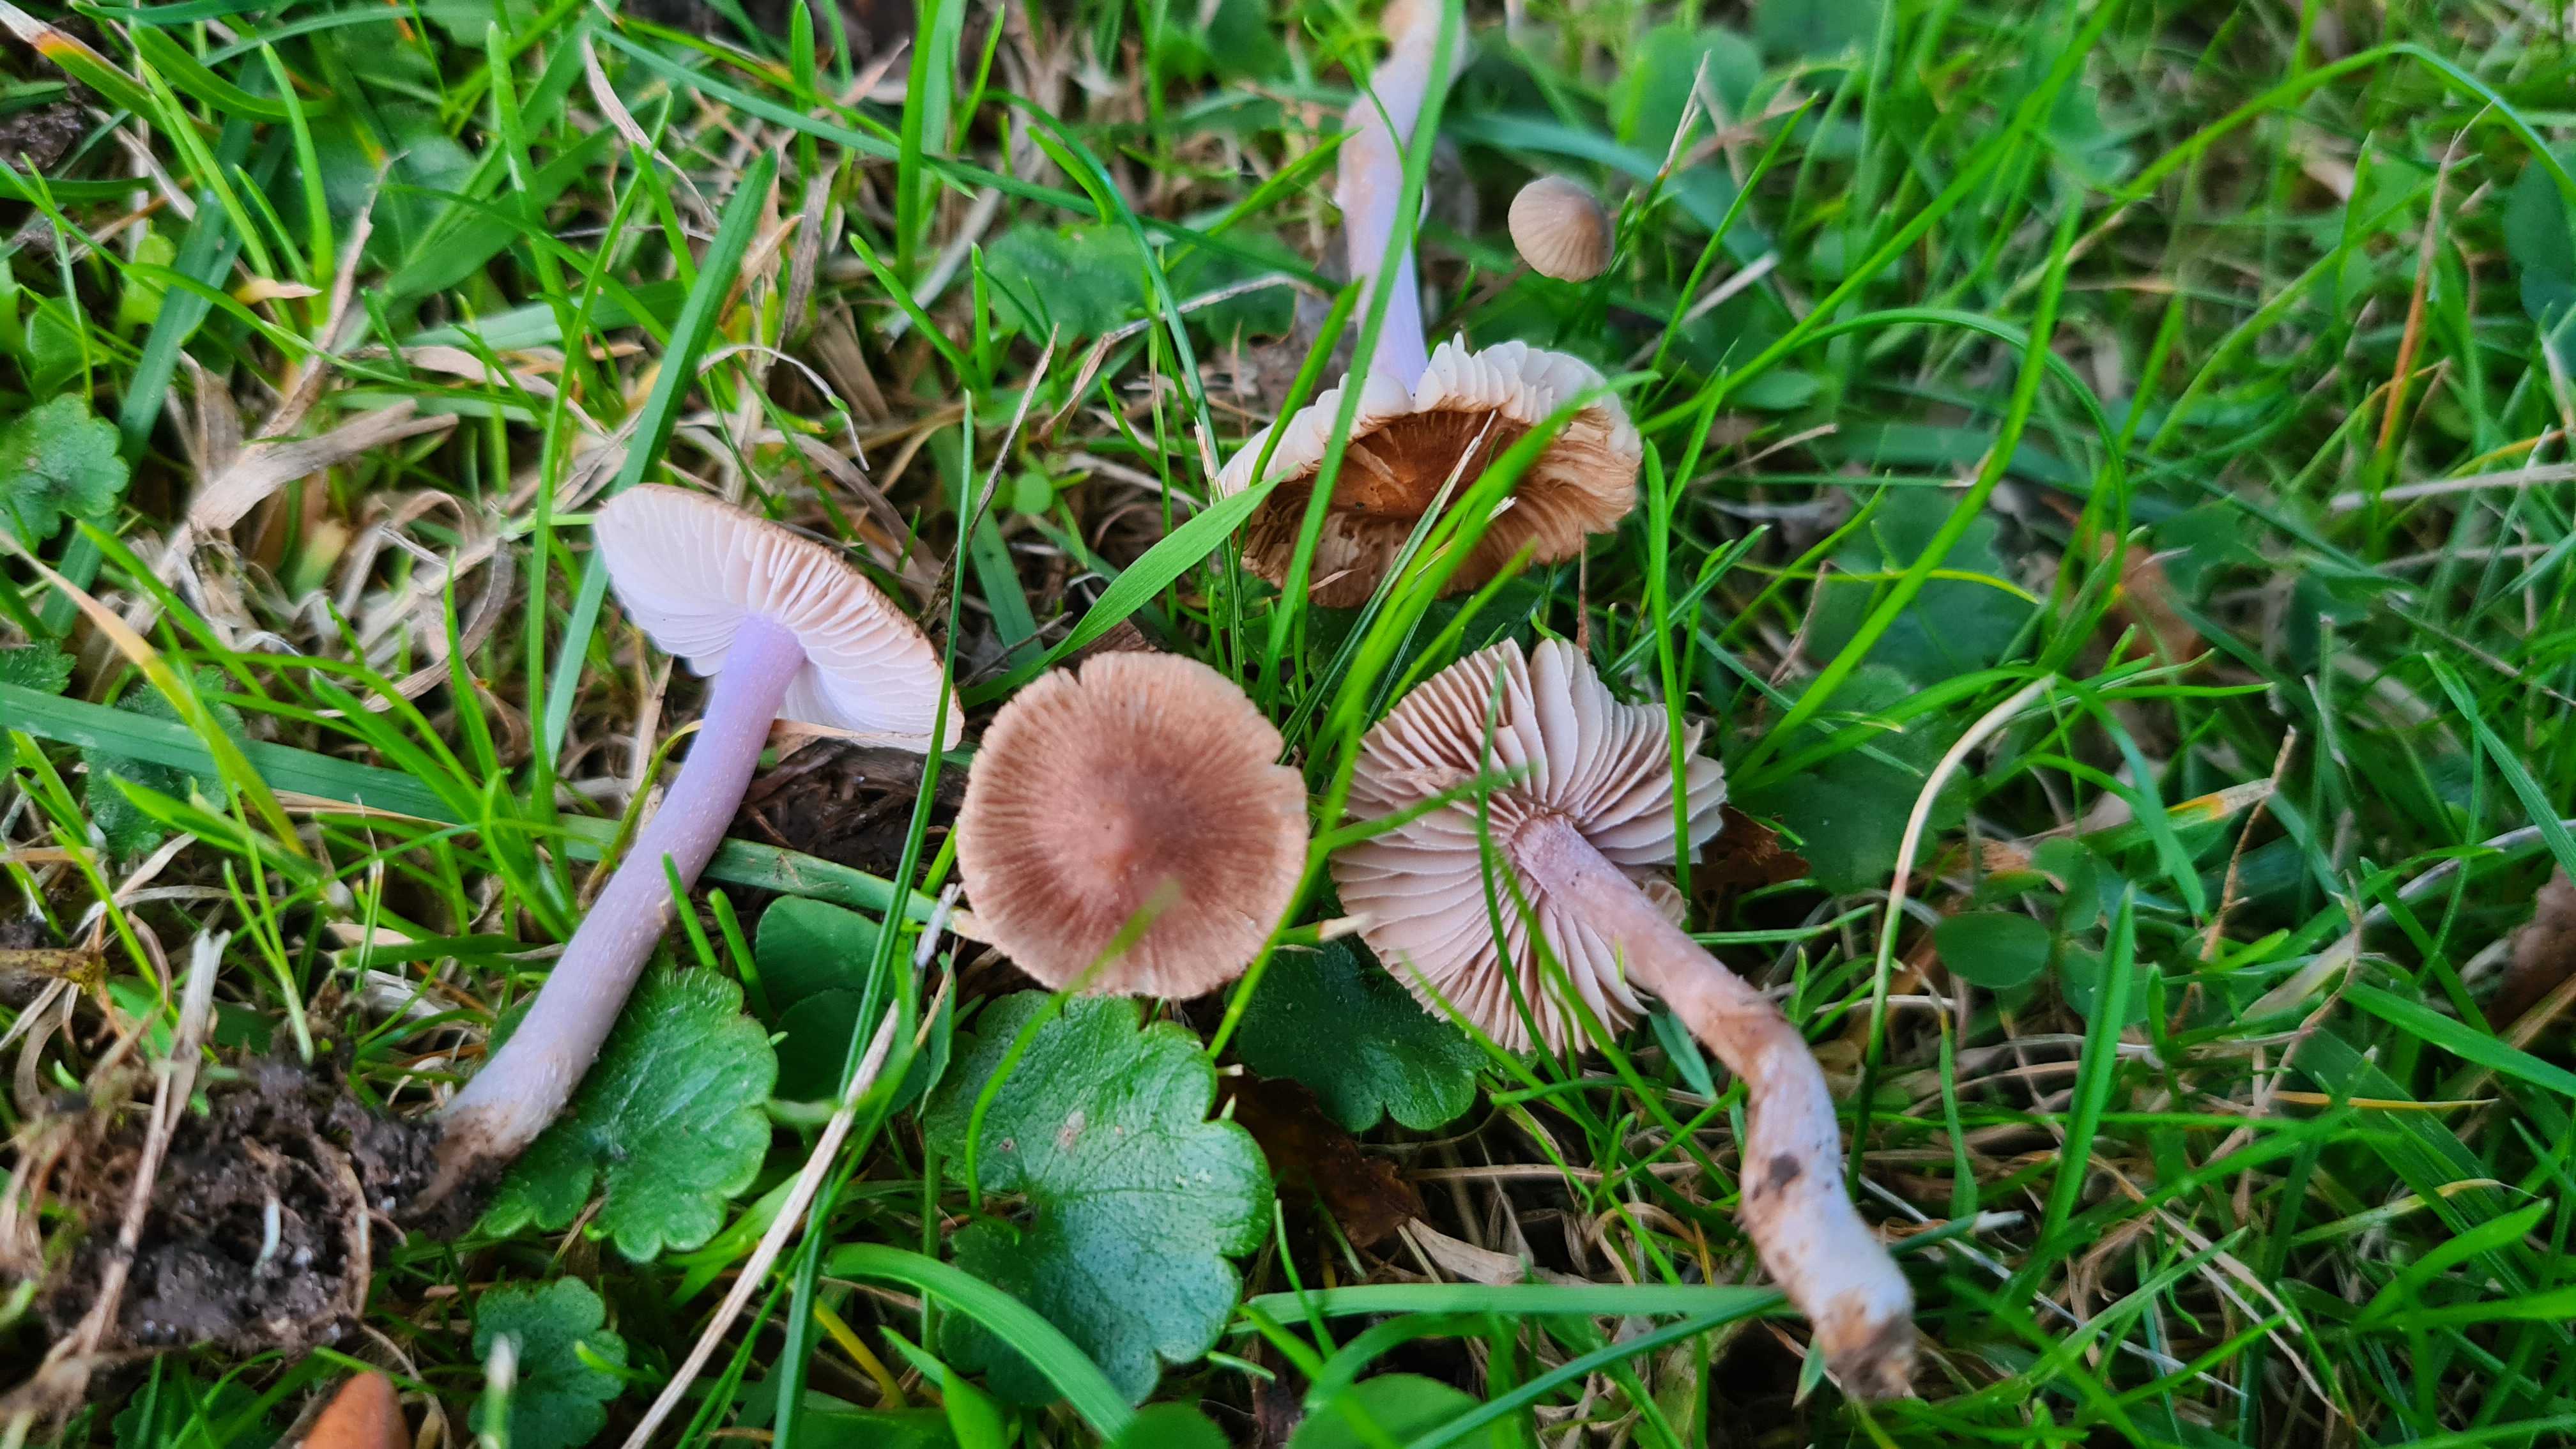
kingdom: Fungi
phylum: Basidiomycota
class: Agaricomycetes
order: Agaricales
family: Inocybaceae
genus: Inocybe
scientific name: Inocybe
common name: trævlhat
